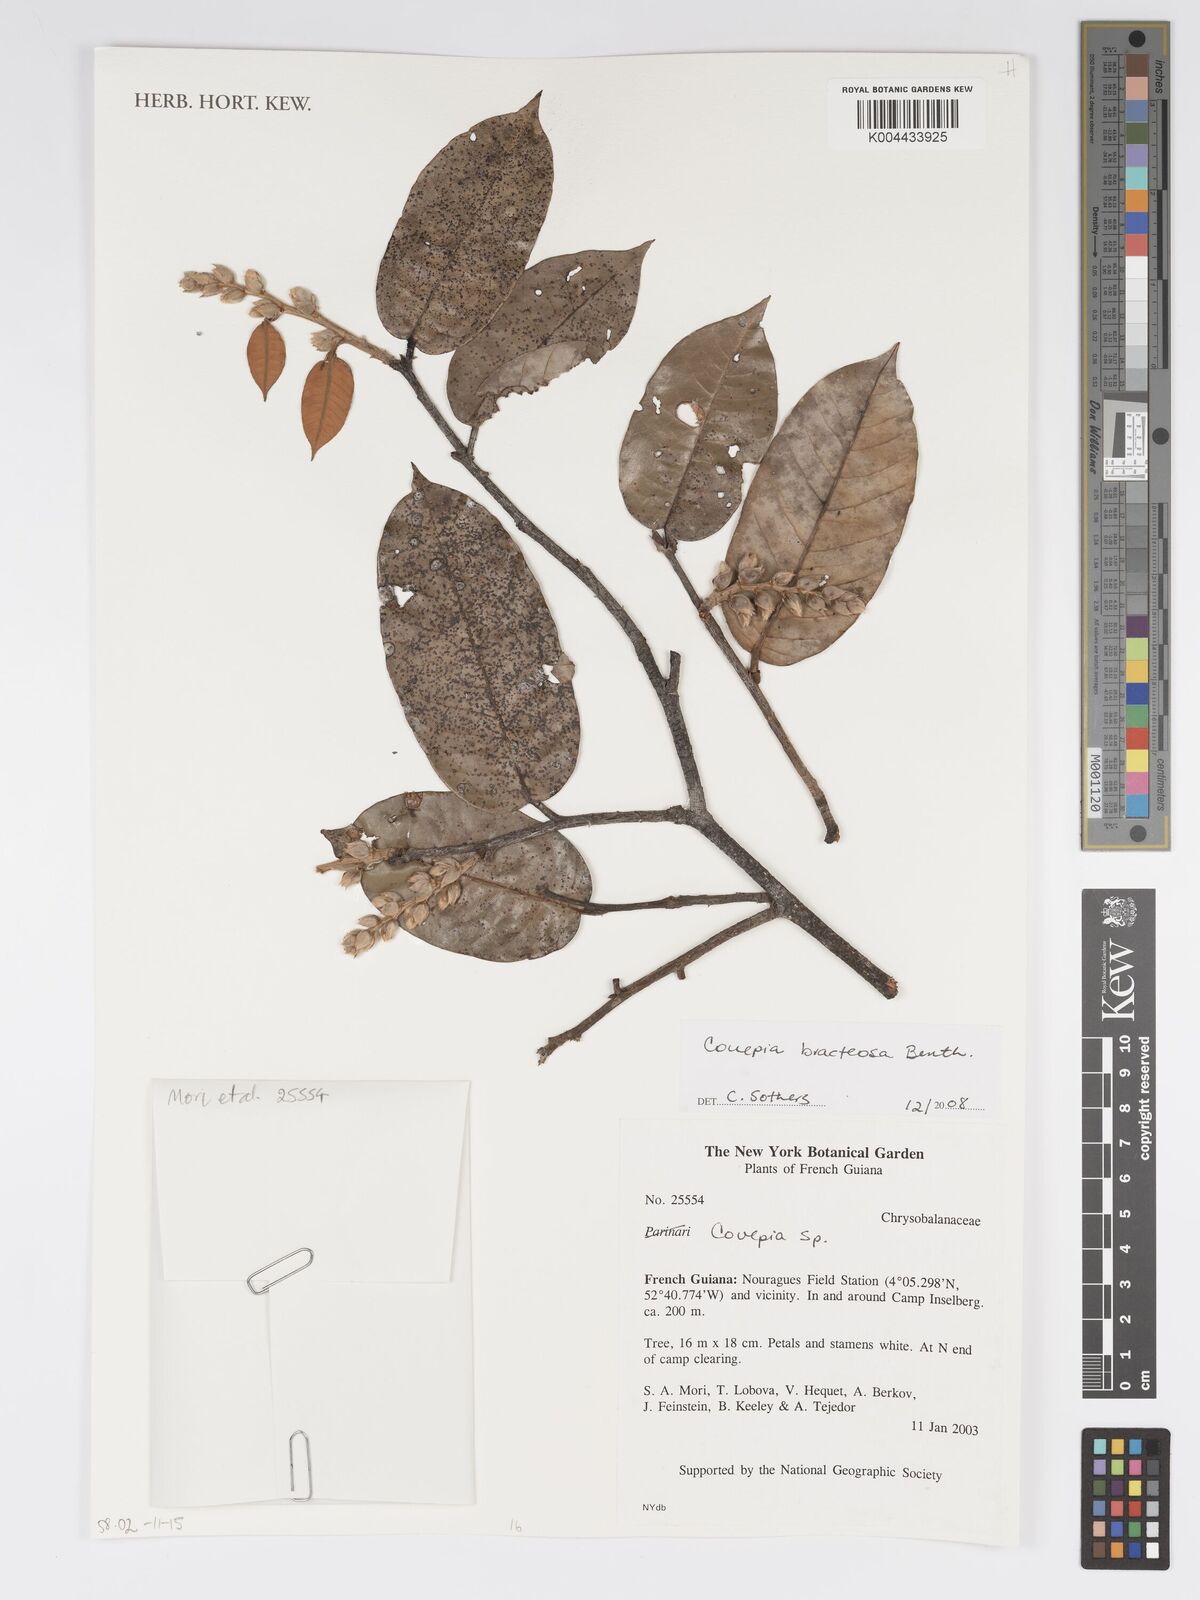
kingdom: Plantae
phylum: Tracheophyta
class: Magnoliopsida
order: Malpighiales
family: Chrysobalanaceae
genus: Couepia
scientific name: Couepia bracteosa
